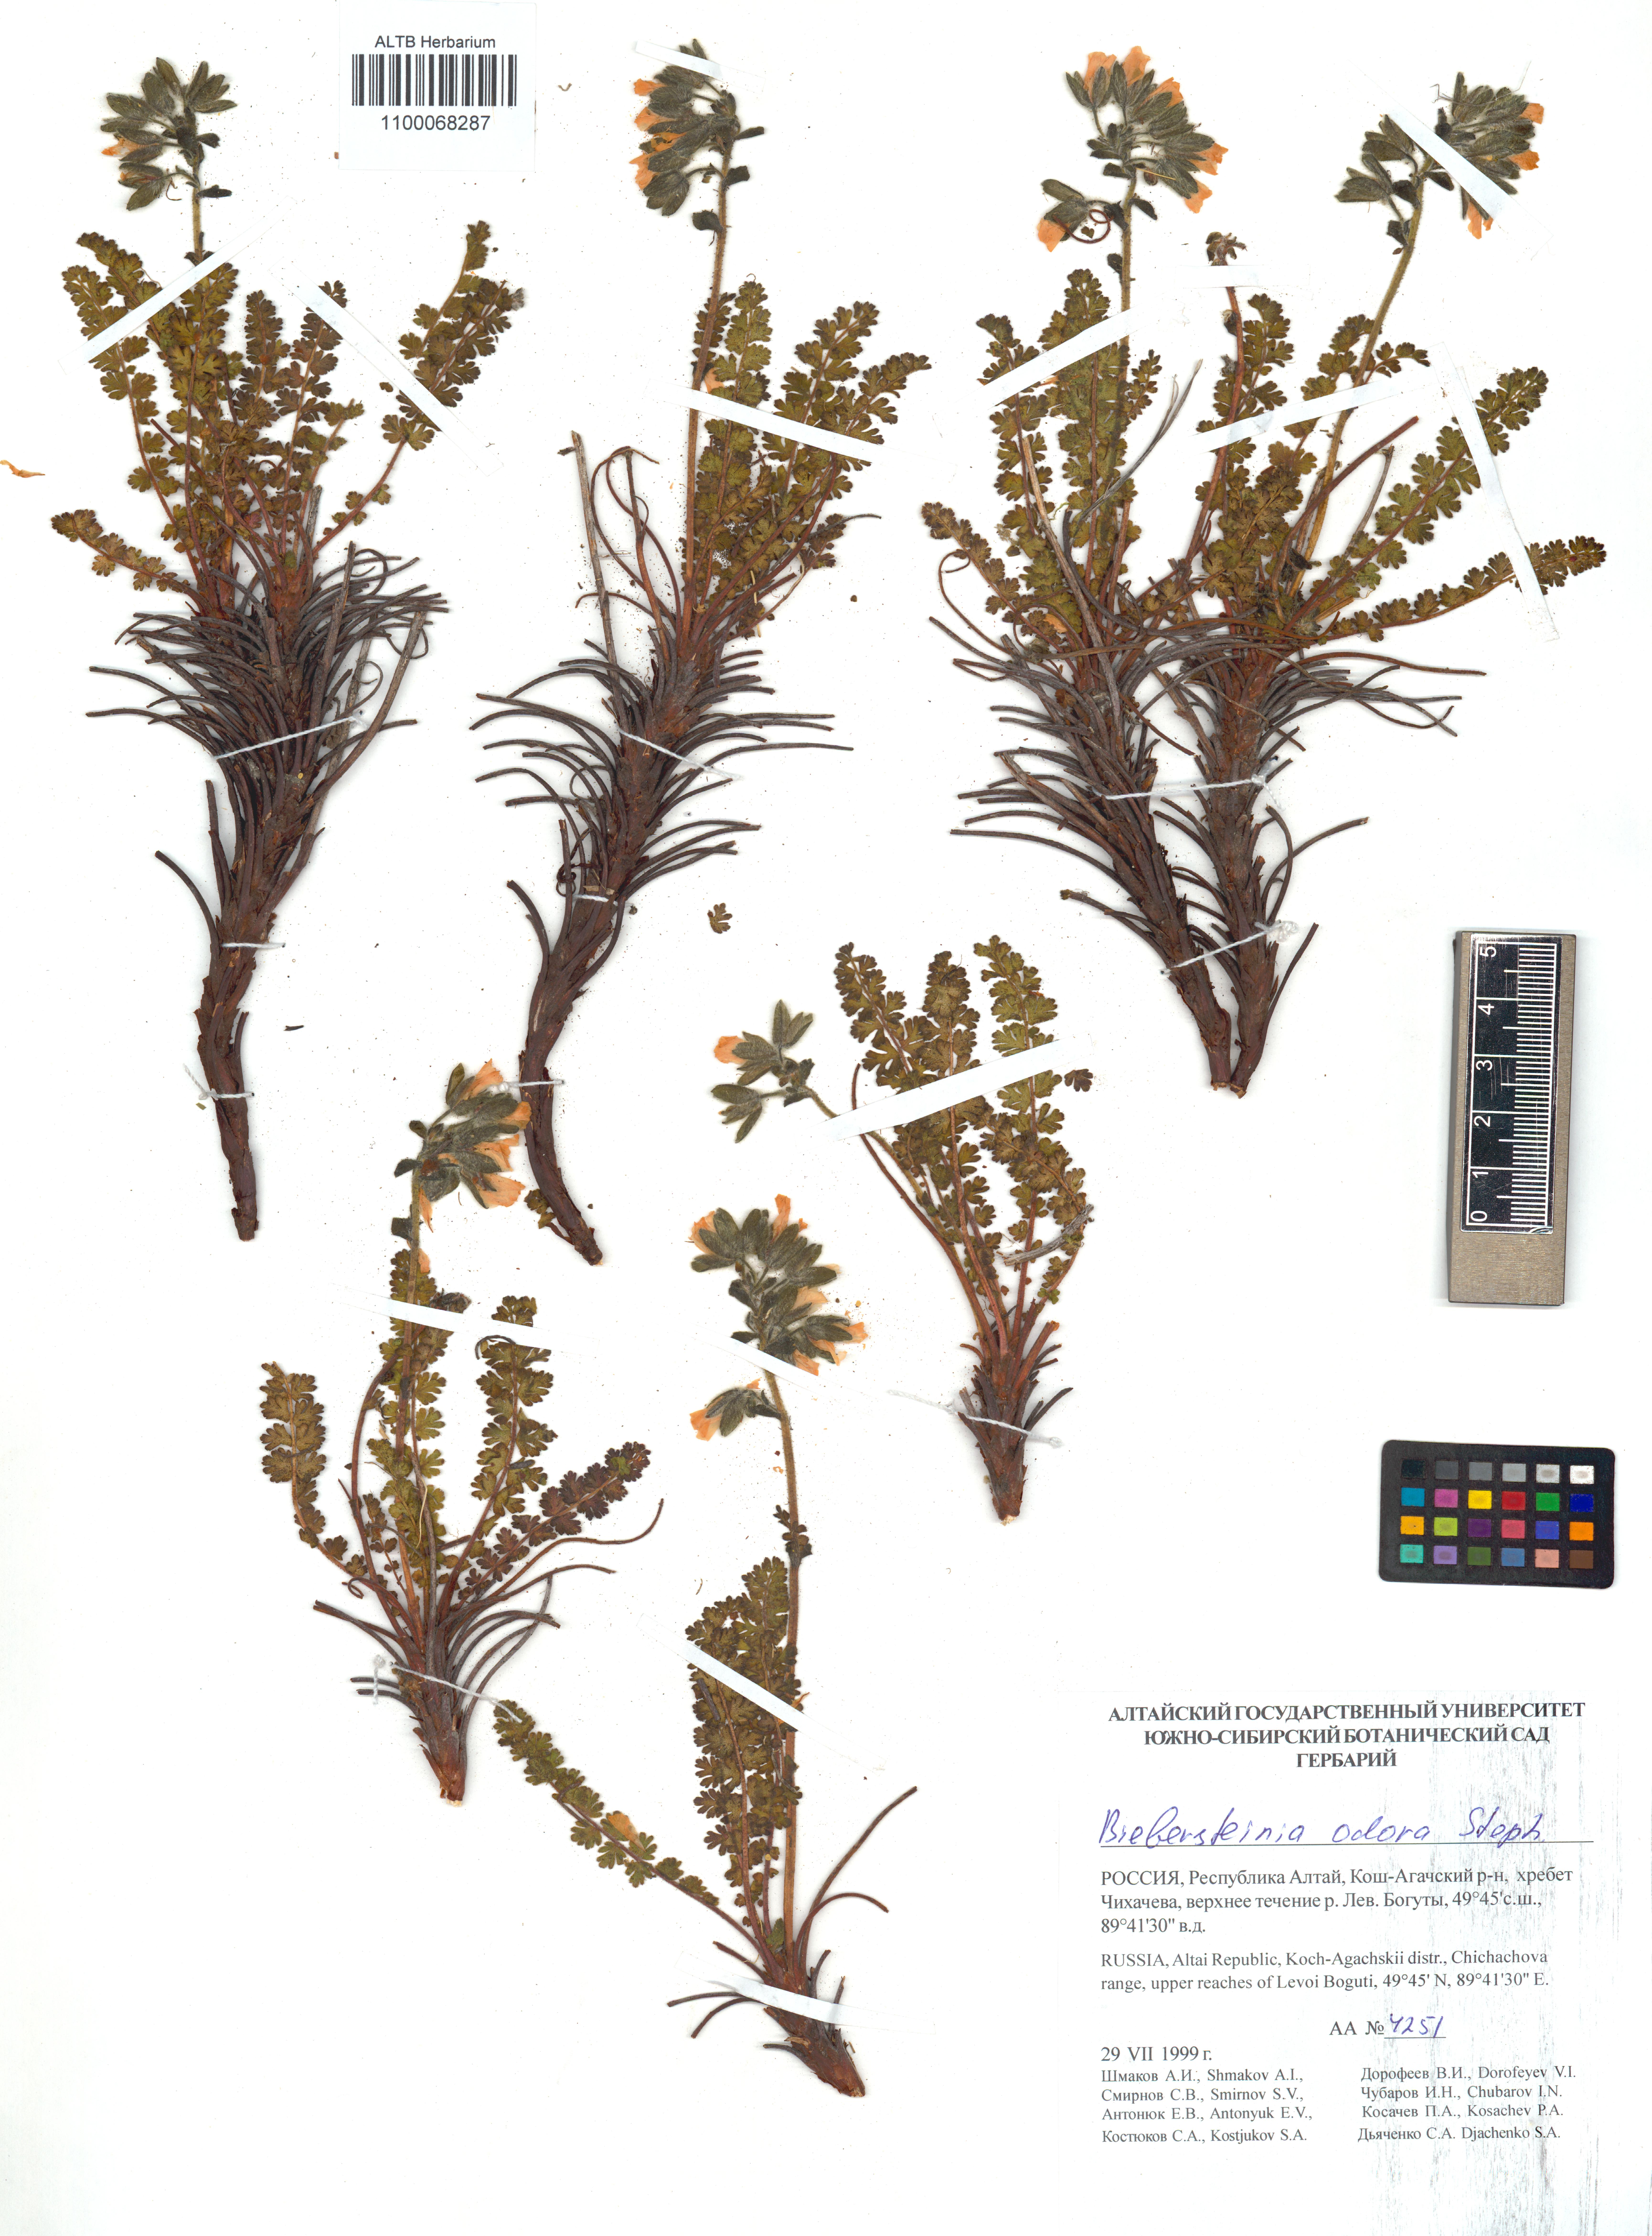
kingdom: Plantae
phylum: Tracheophyta
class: Magnoliopsida
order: Sapindales
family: Biebersteiniaceae
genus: Biebersteinia
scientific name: Biebersteinia odora
